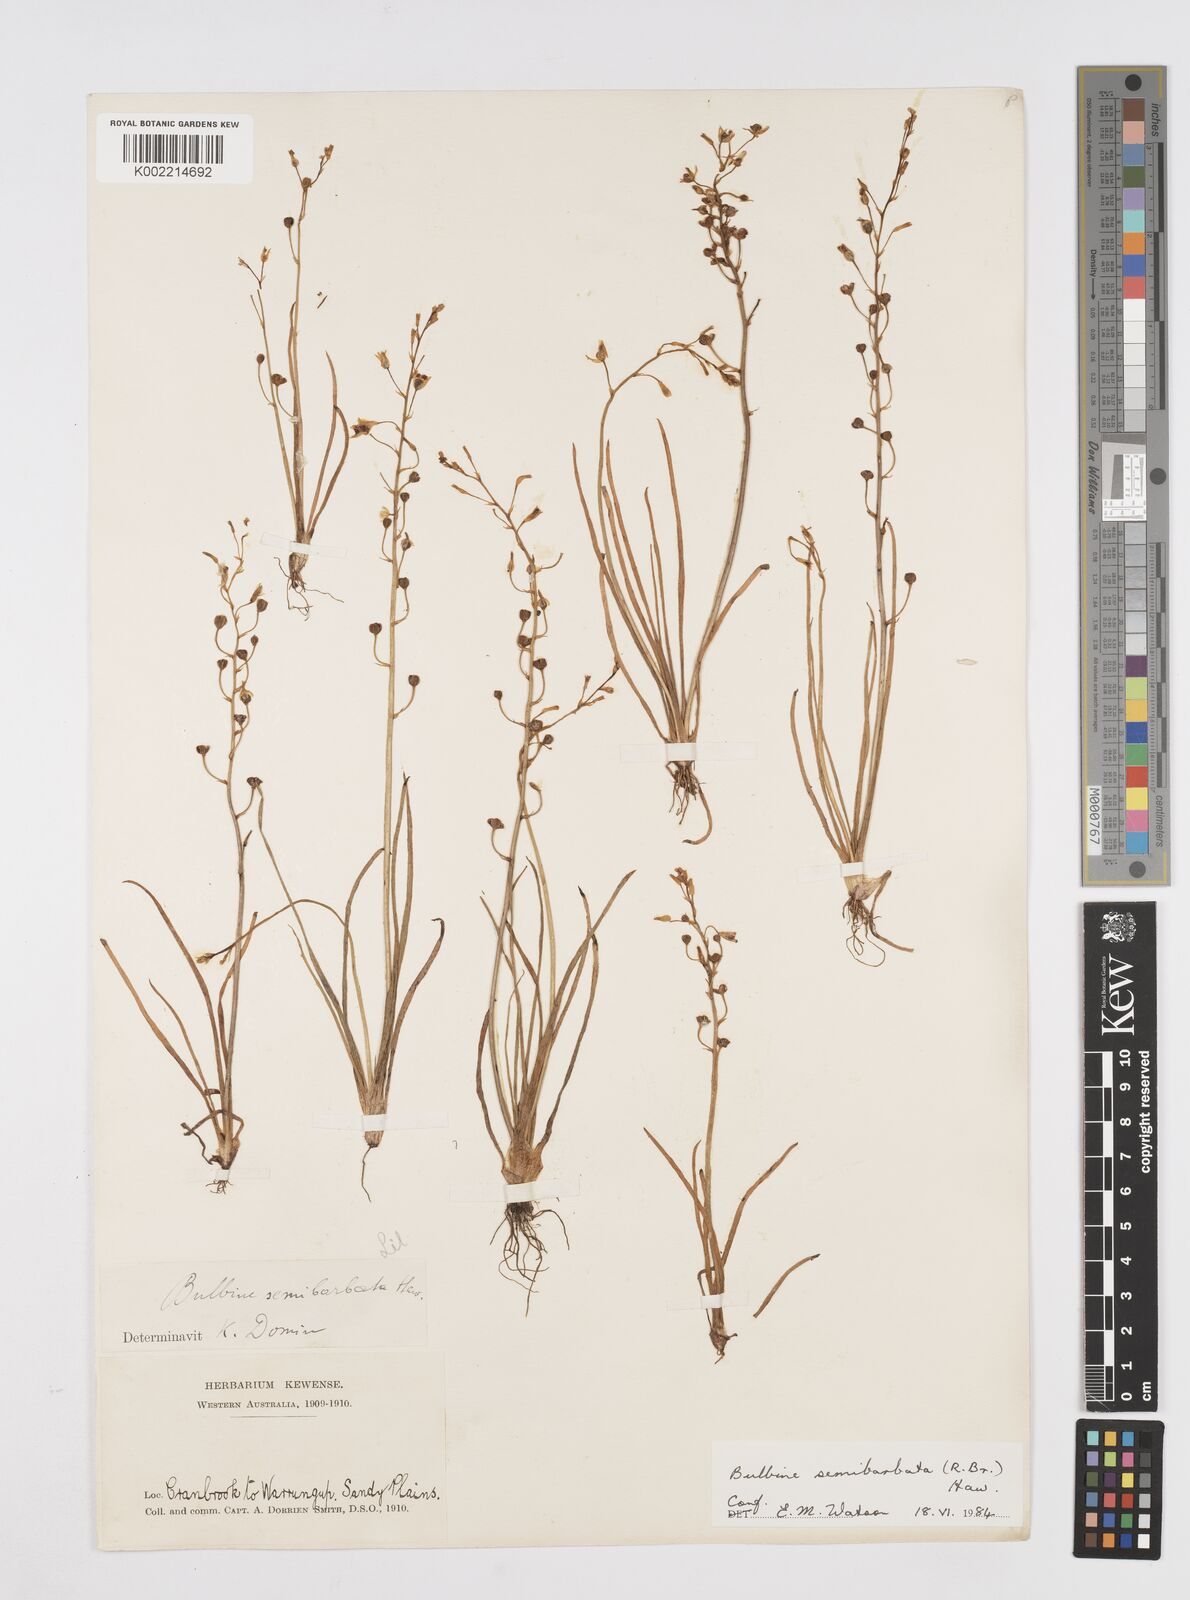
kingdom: Plantae
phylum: Tracheophyta
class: Liliopsida
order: Asparagales
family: Asphodelaceae
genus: Bulbine
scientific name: Bulbine semibarbata
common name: Leek lily
